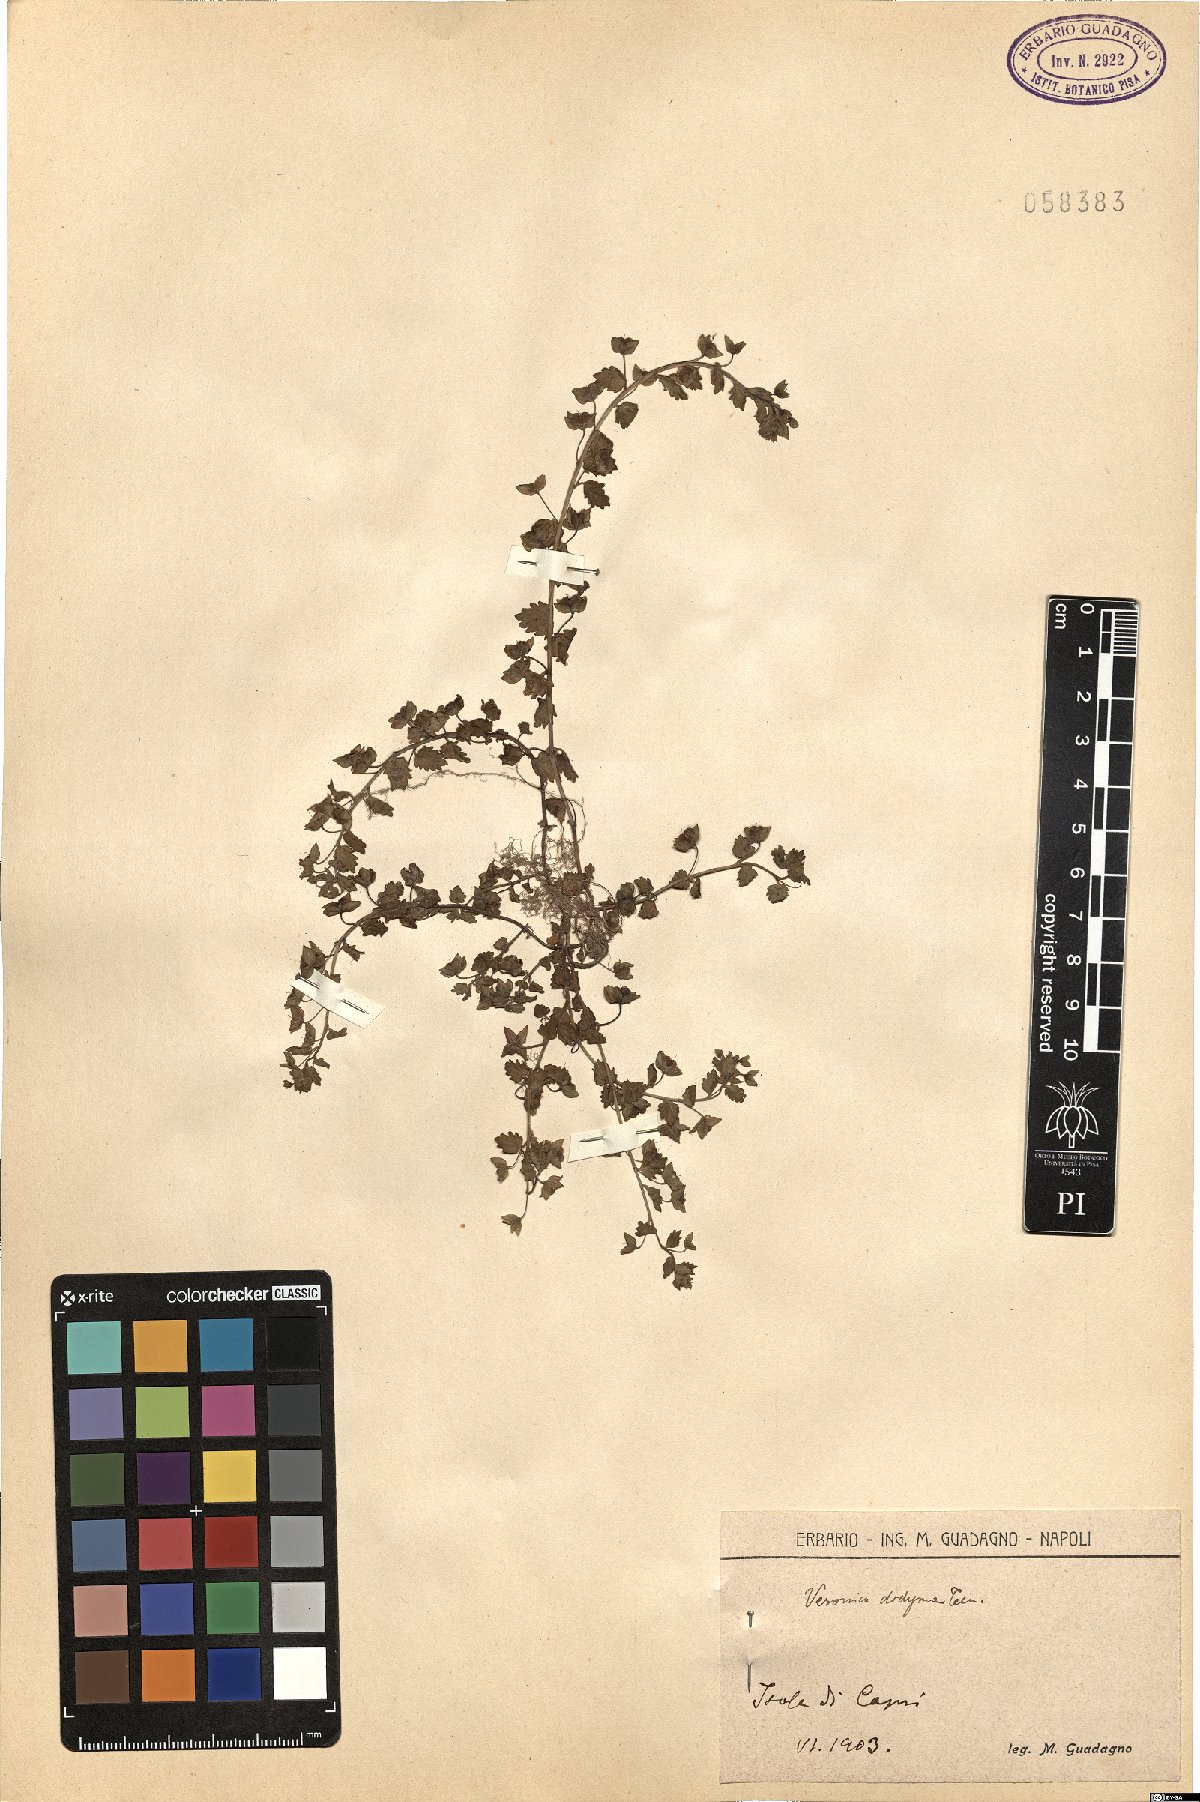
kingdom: Plantae
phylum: Tracheophyta
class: Magnoliopsida
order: Lamiales
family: Plantaginaceae
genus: Veronica
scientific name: Veronica polita
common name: Grey field-speedwell
